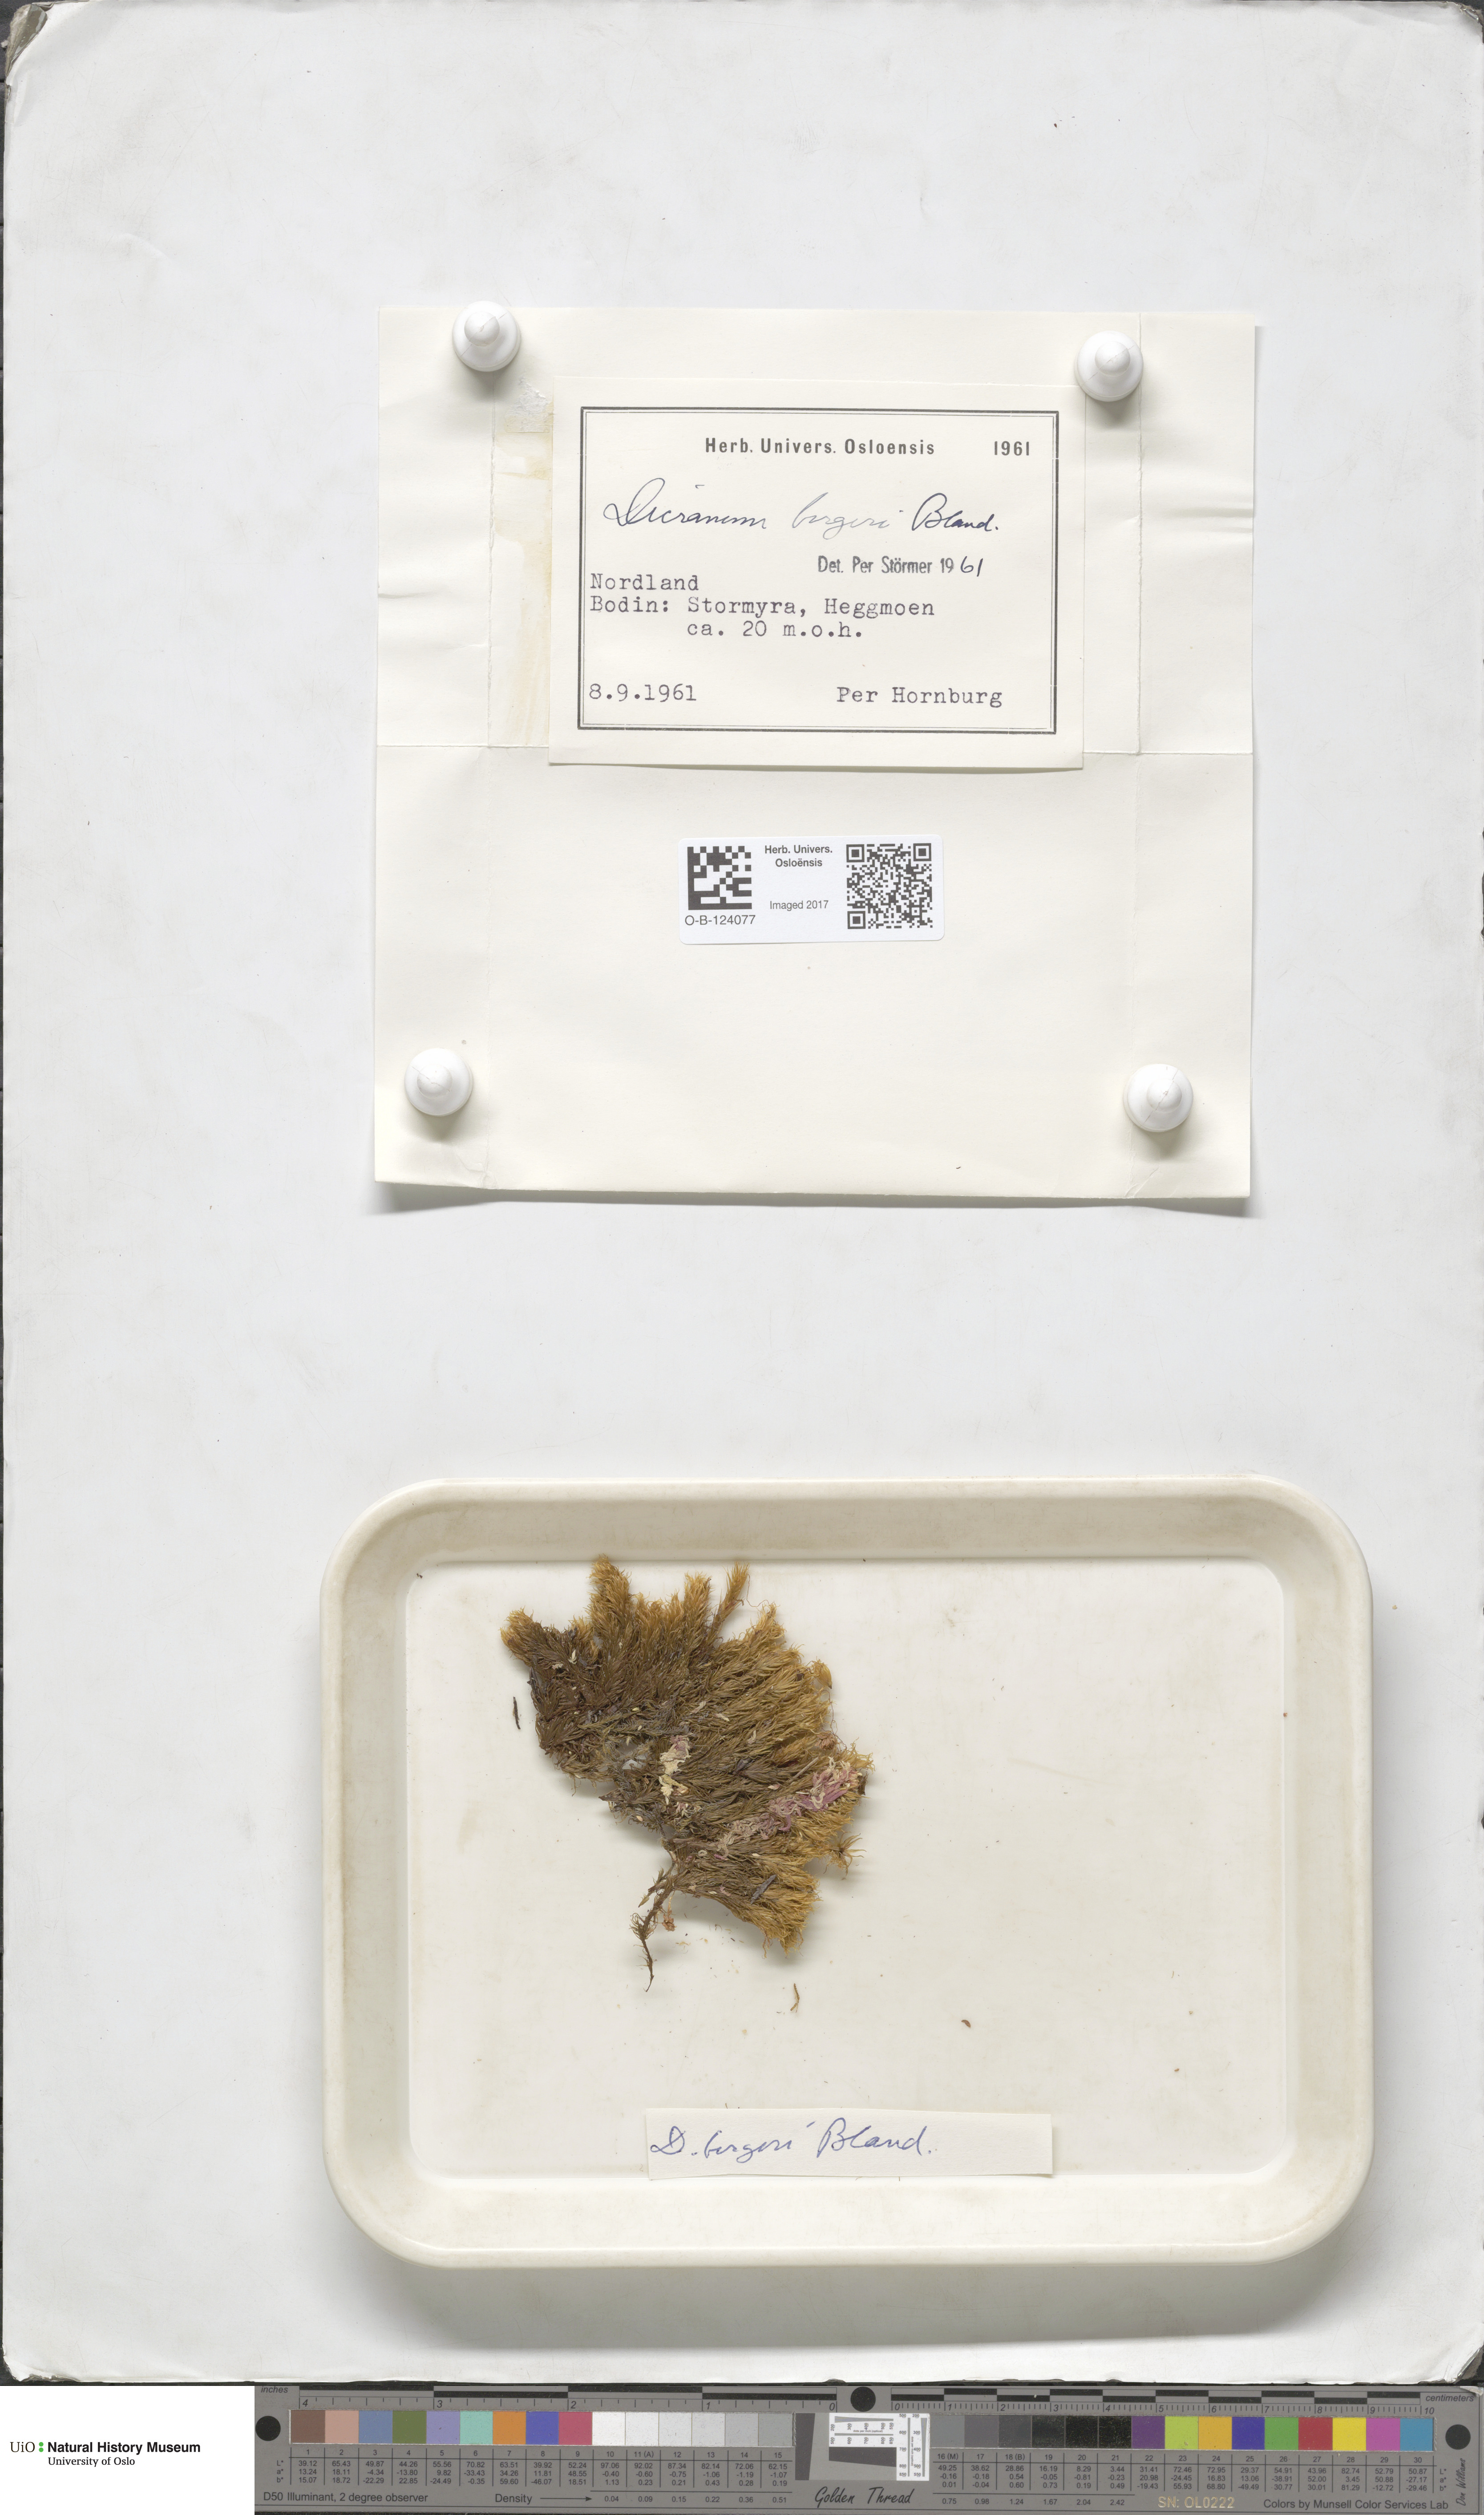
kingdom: Plantae
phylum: Bryophyta
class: Bryopsida
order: Dicranales
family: Dicranaceae
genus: Dicranum
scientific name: Dicranum undulatum
